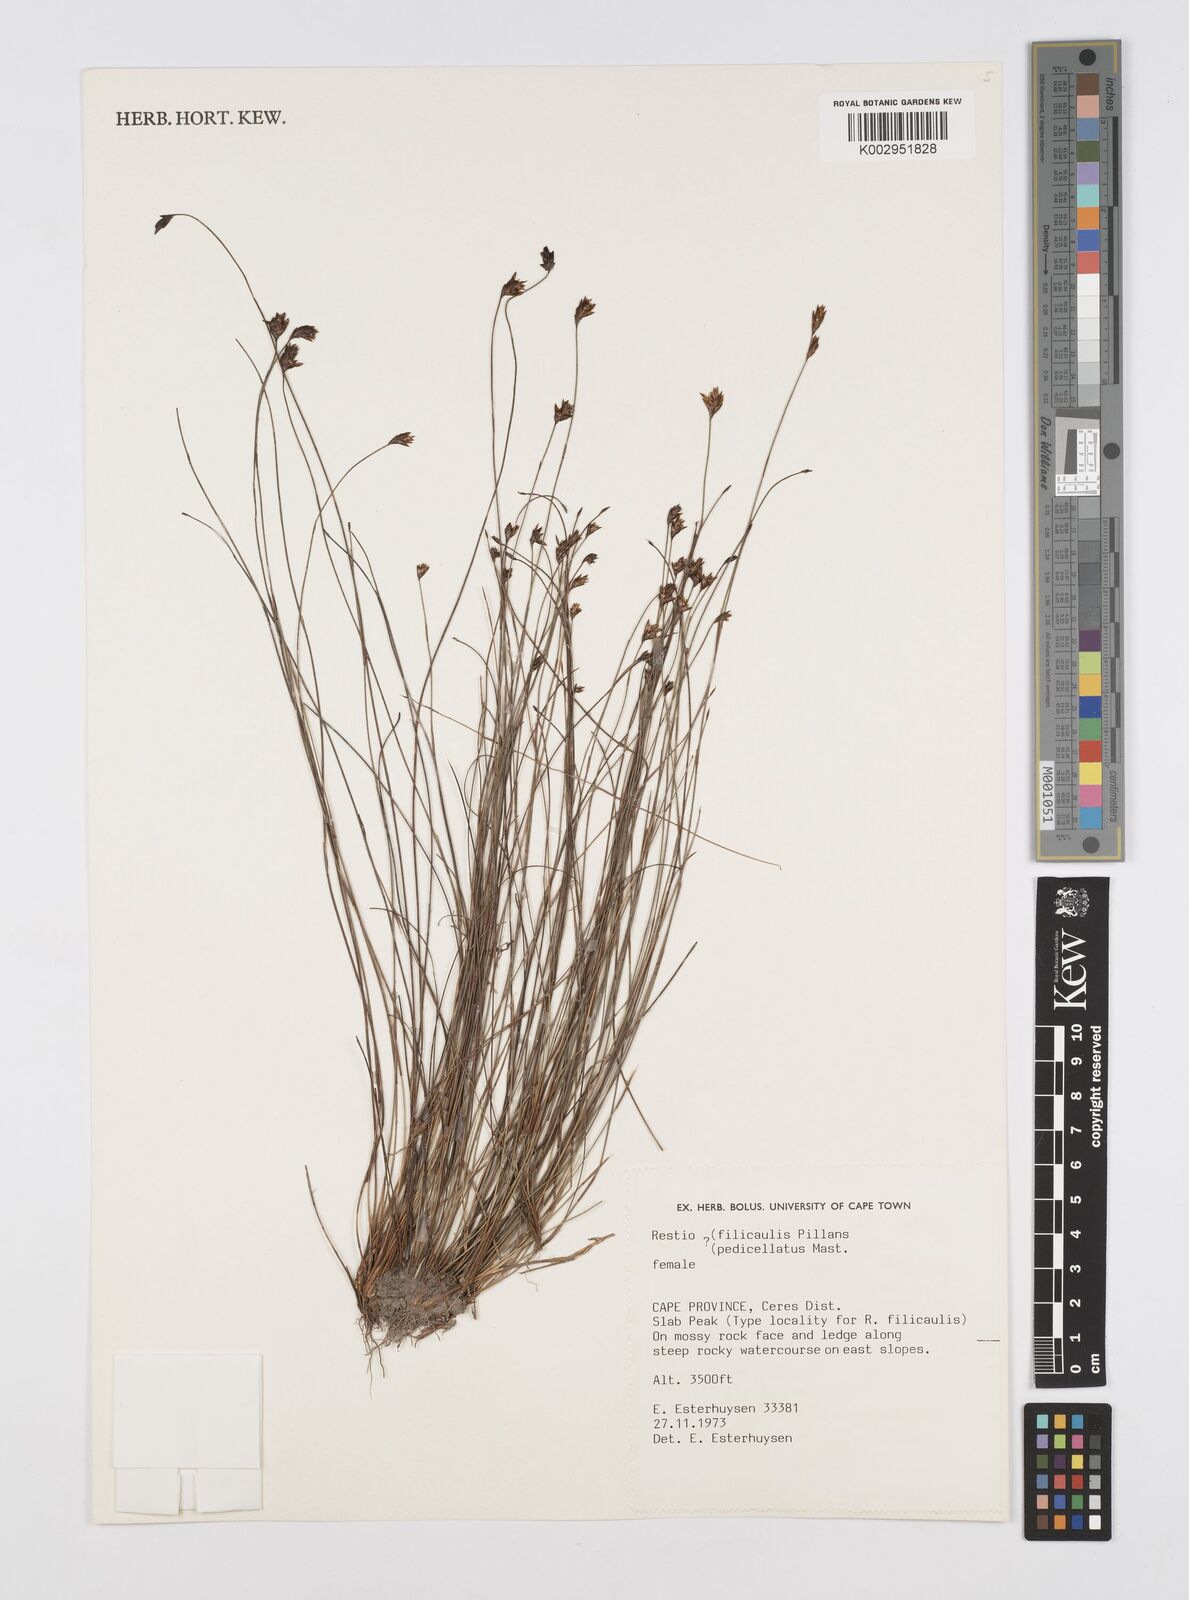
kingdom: Plantae
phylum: Tracheophyta
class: Liliopsida
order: Poales
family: Restionaceae
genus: Restio
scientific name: Restio
